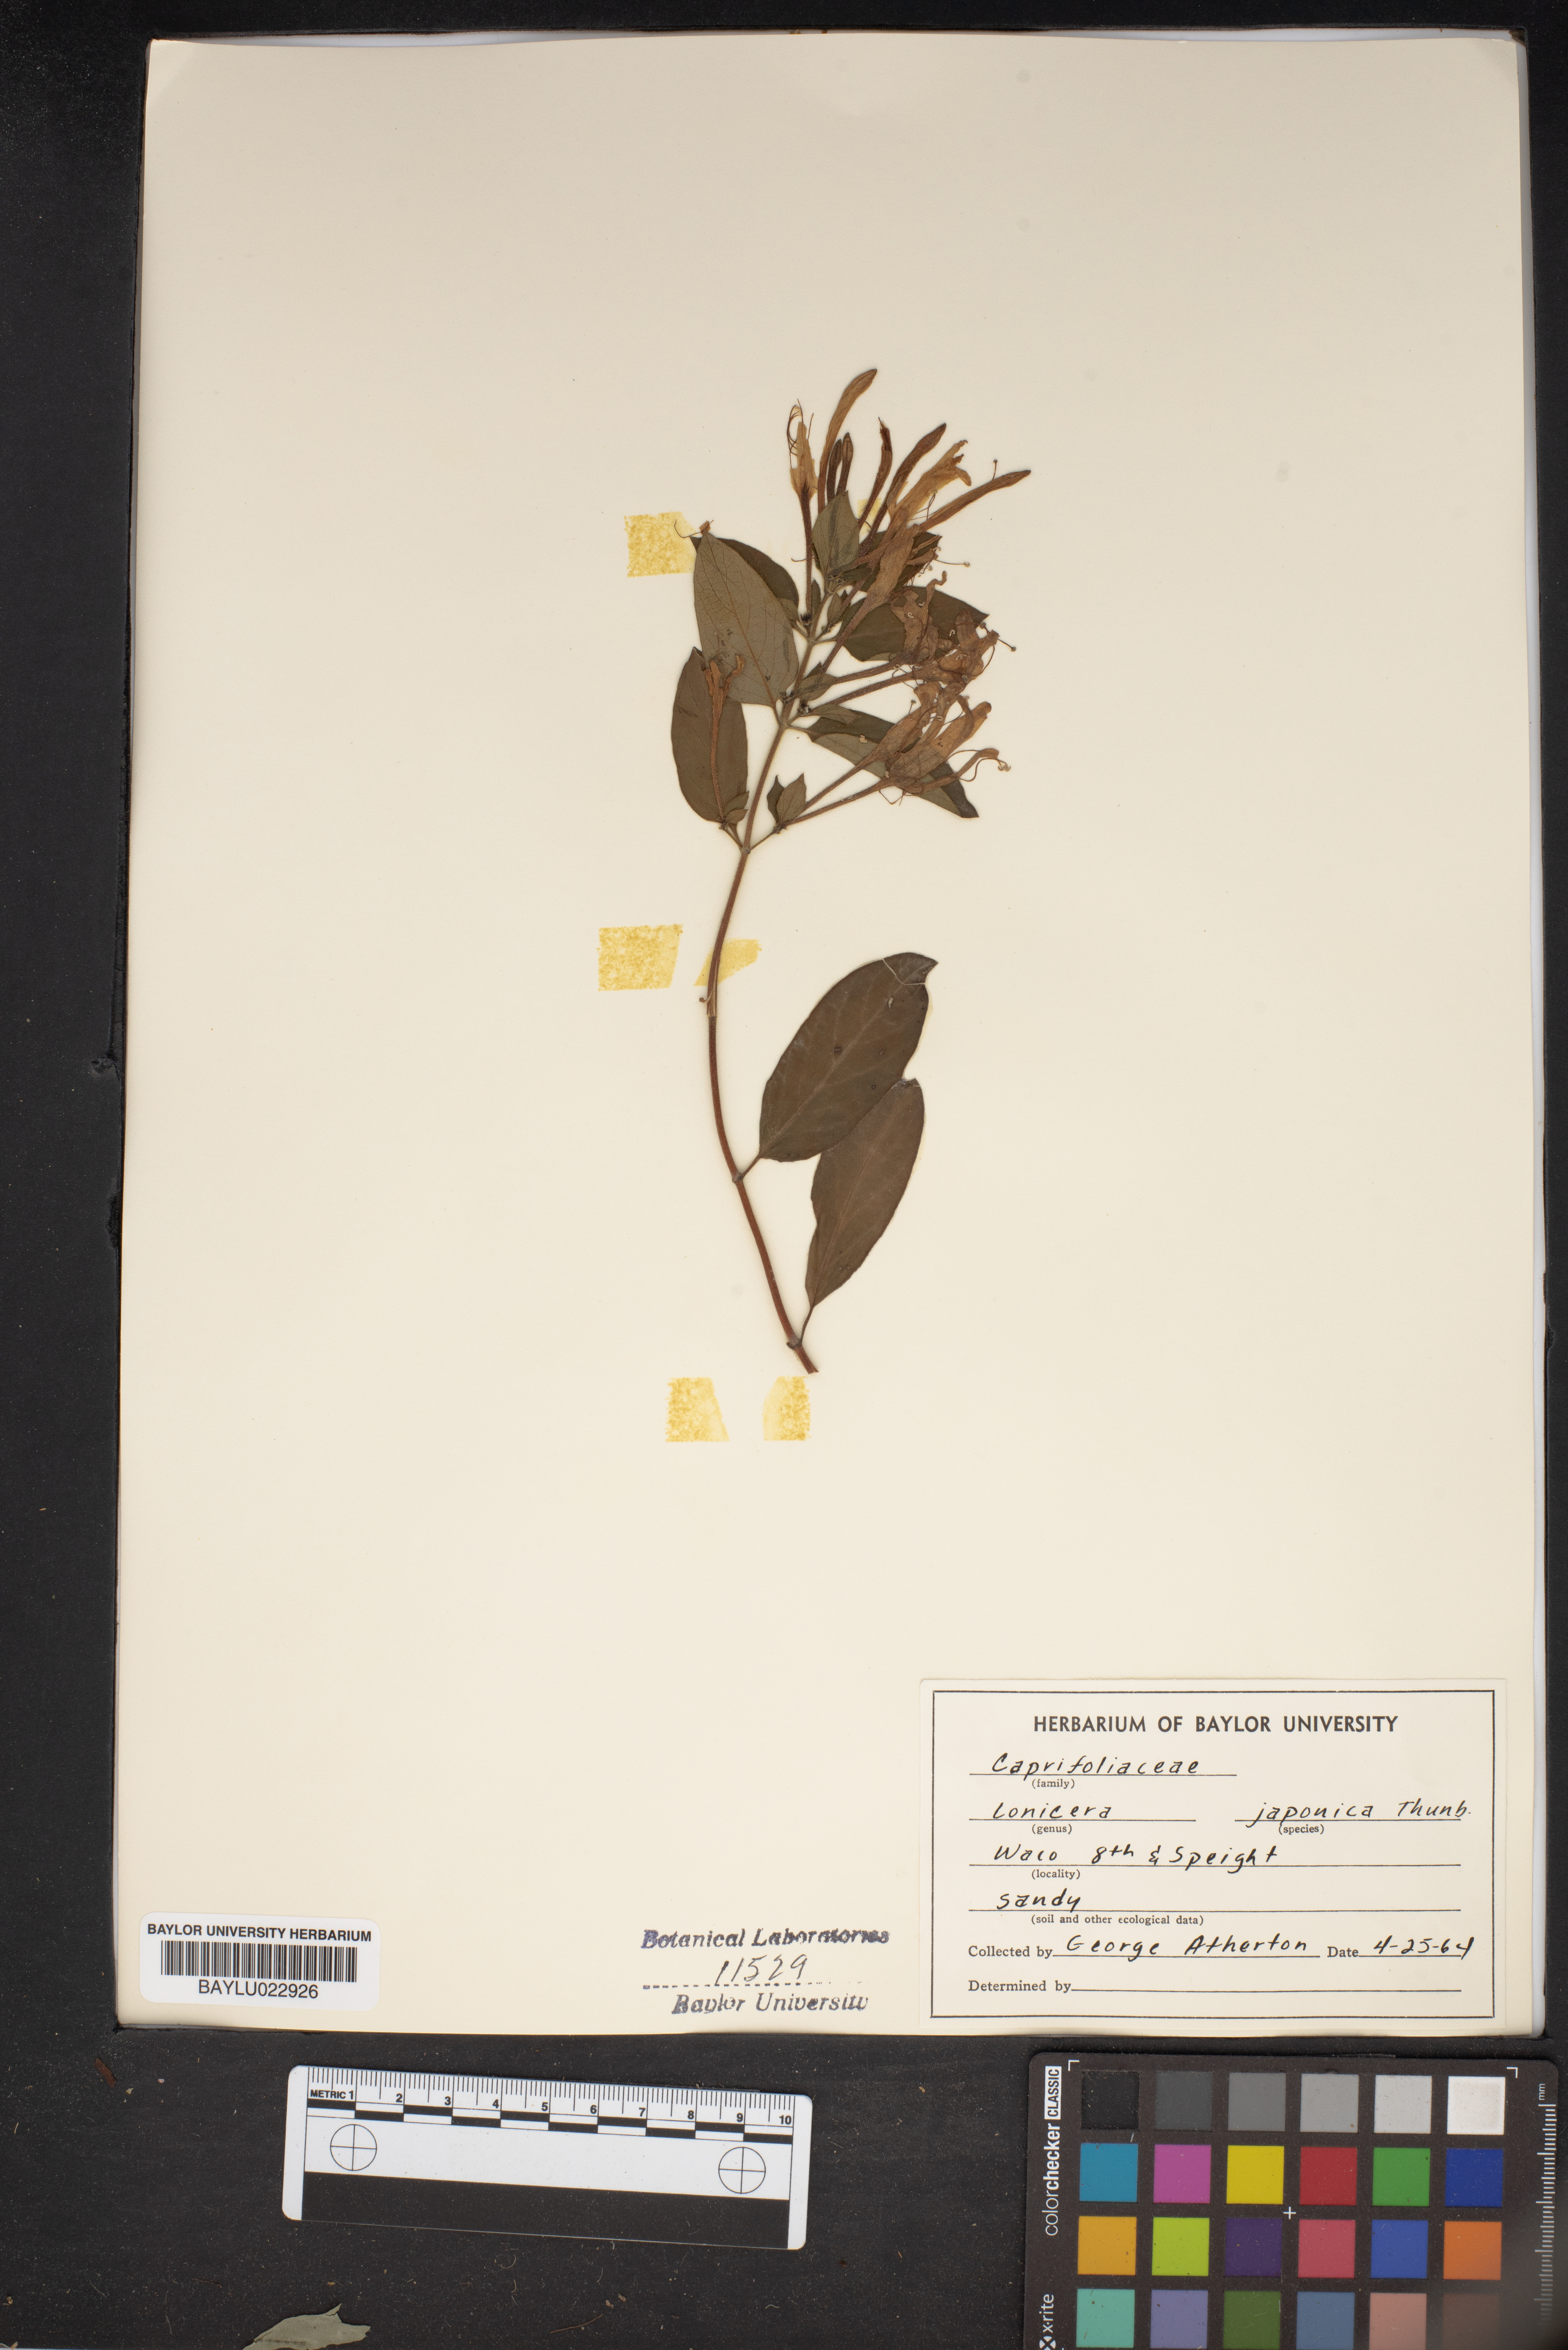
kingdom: Plantae
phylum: Tracheophyta
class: Magnoliopsida
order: Dipsacales
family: Caprifoliaceae
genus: Lonicera
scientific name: Lonicera japonica
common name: Japanese honeysuckle
